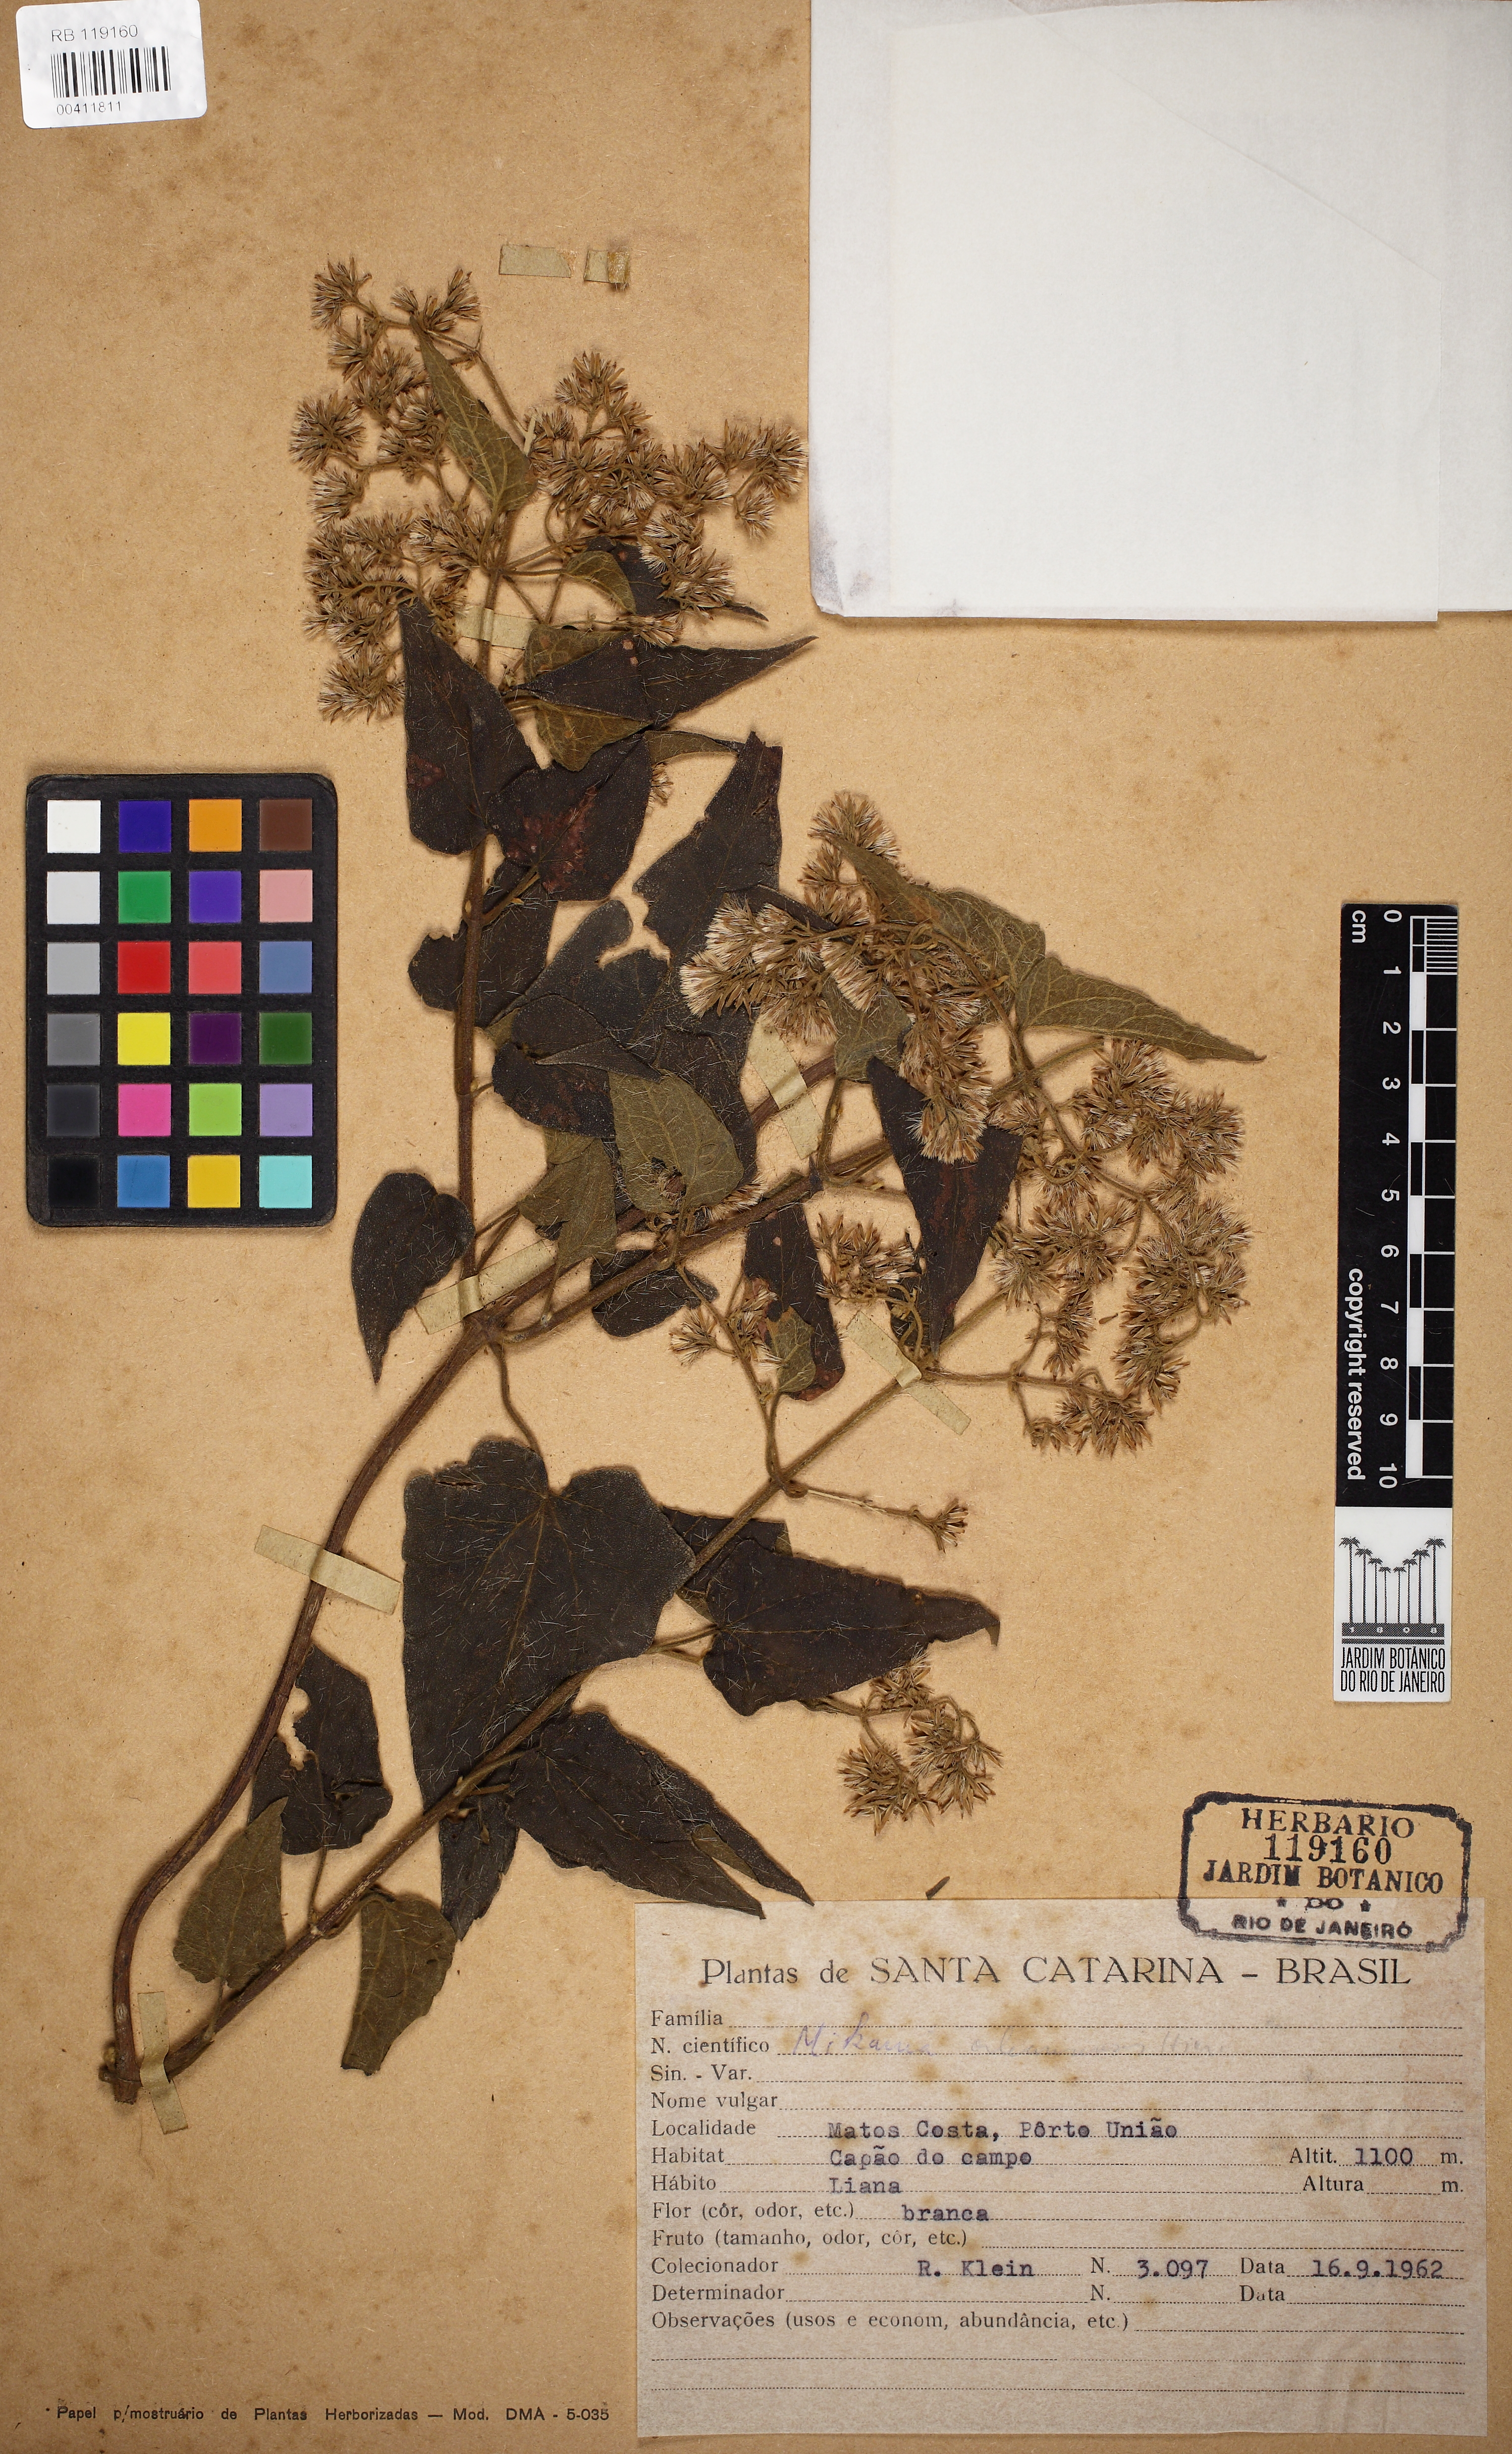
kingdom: Plantae
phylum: Tracheophyta
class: Magnoliopsida
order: Asterales
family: Asteraceae
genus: Mikania
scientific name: Mikania orleansensis
